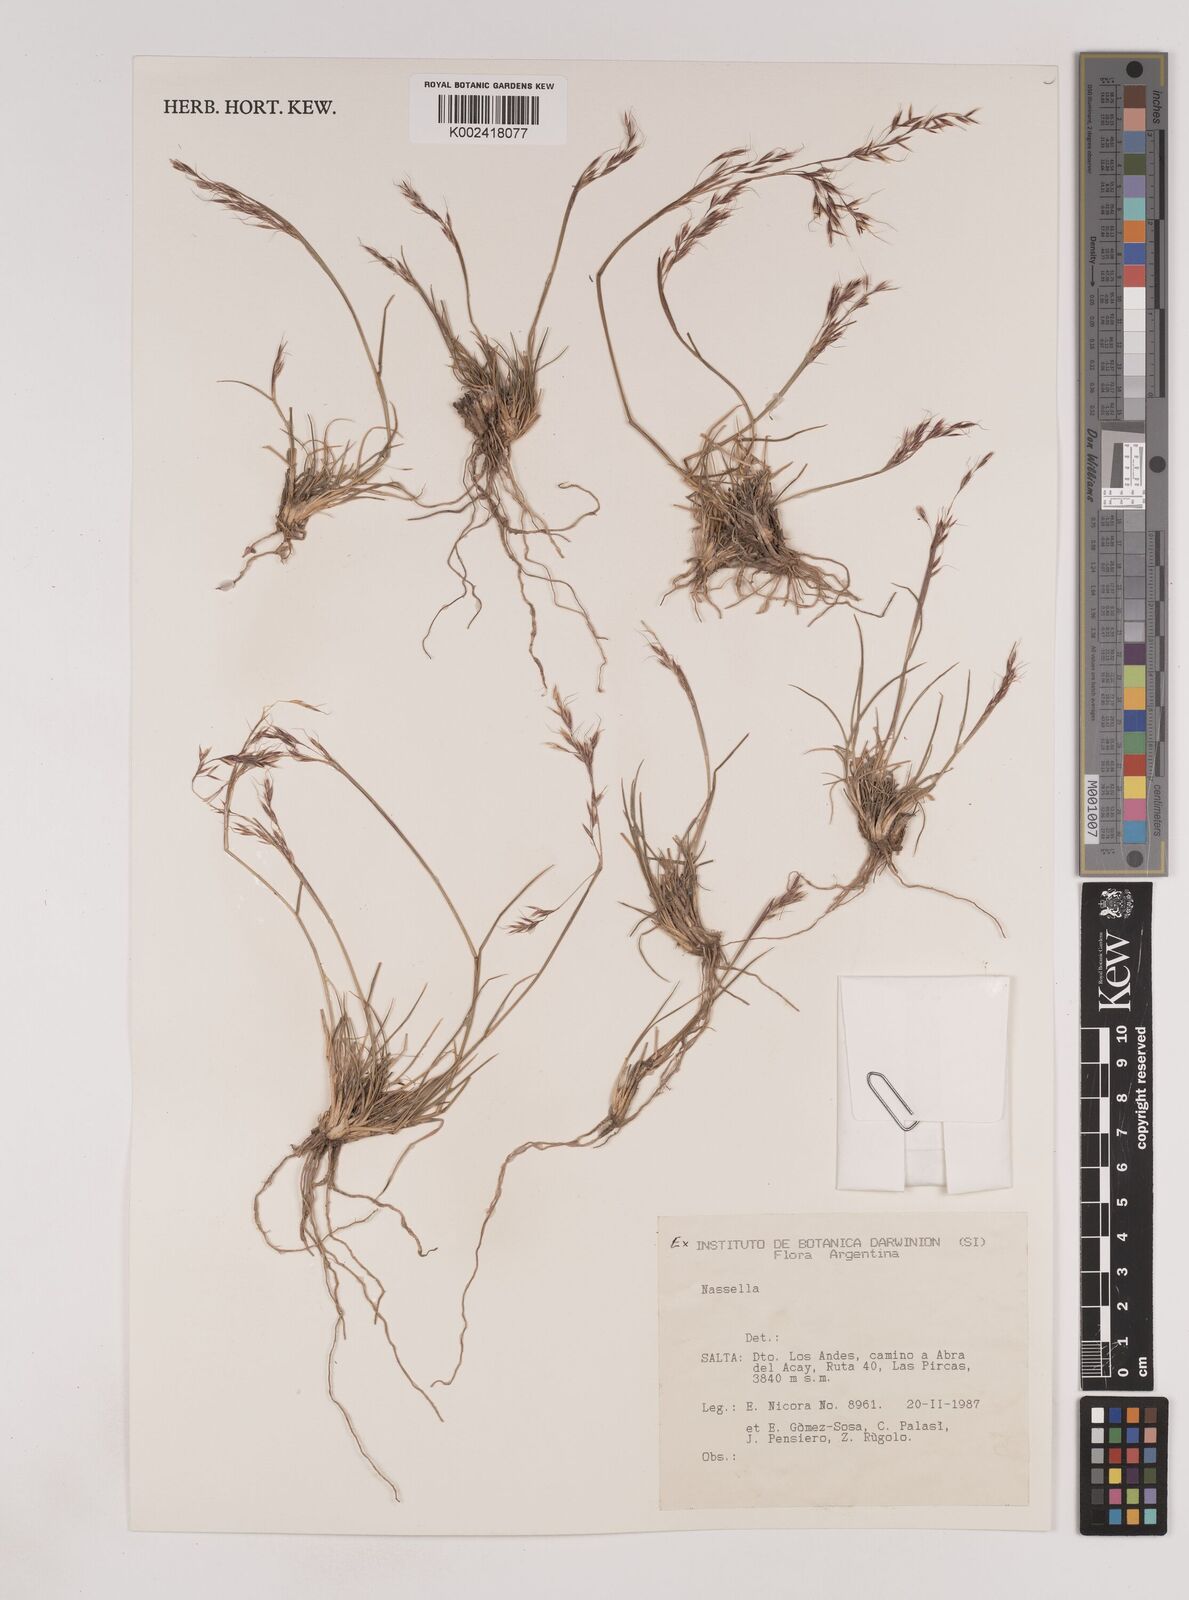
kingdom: Plantae
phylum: Tracheophyta
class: Liliopsida
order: Poales
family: Poaceae
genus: Nassella
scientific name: Nassella
